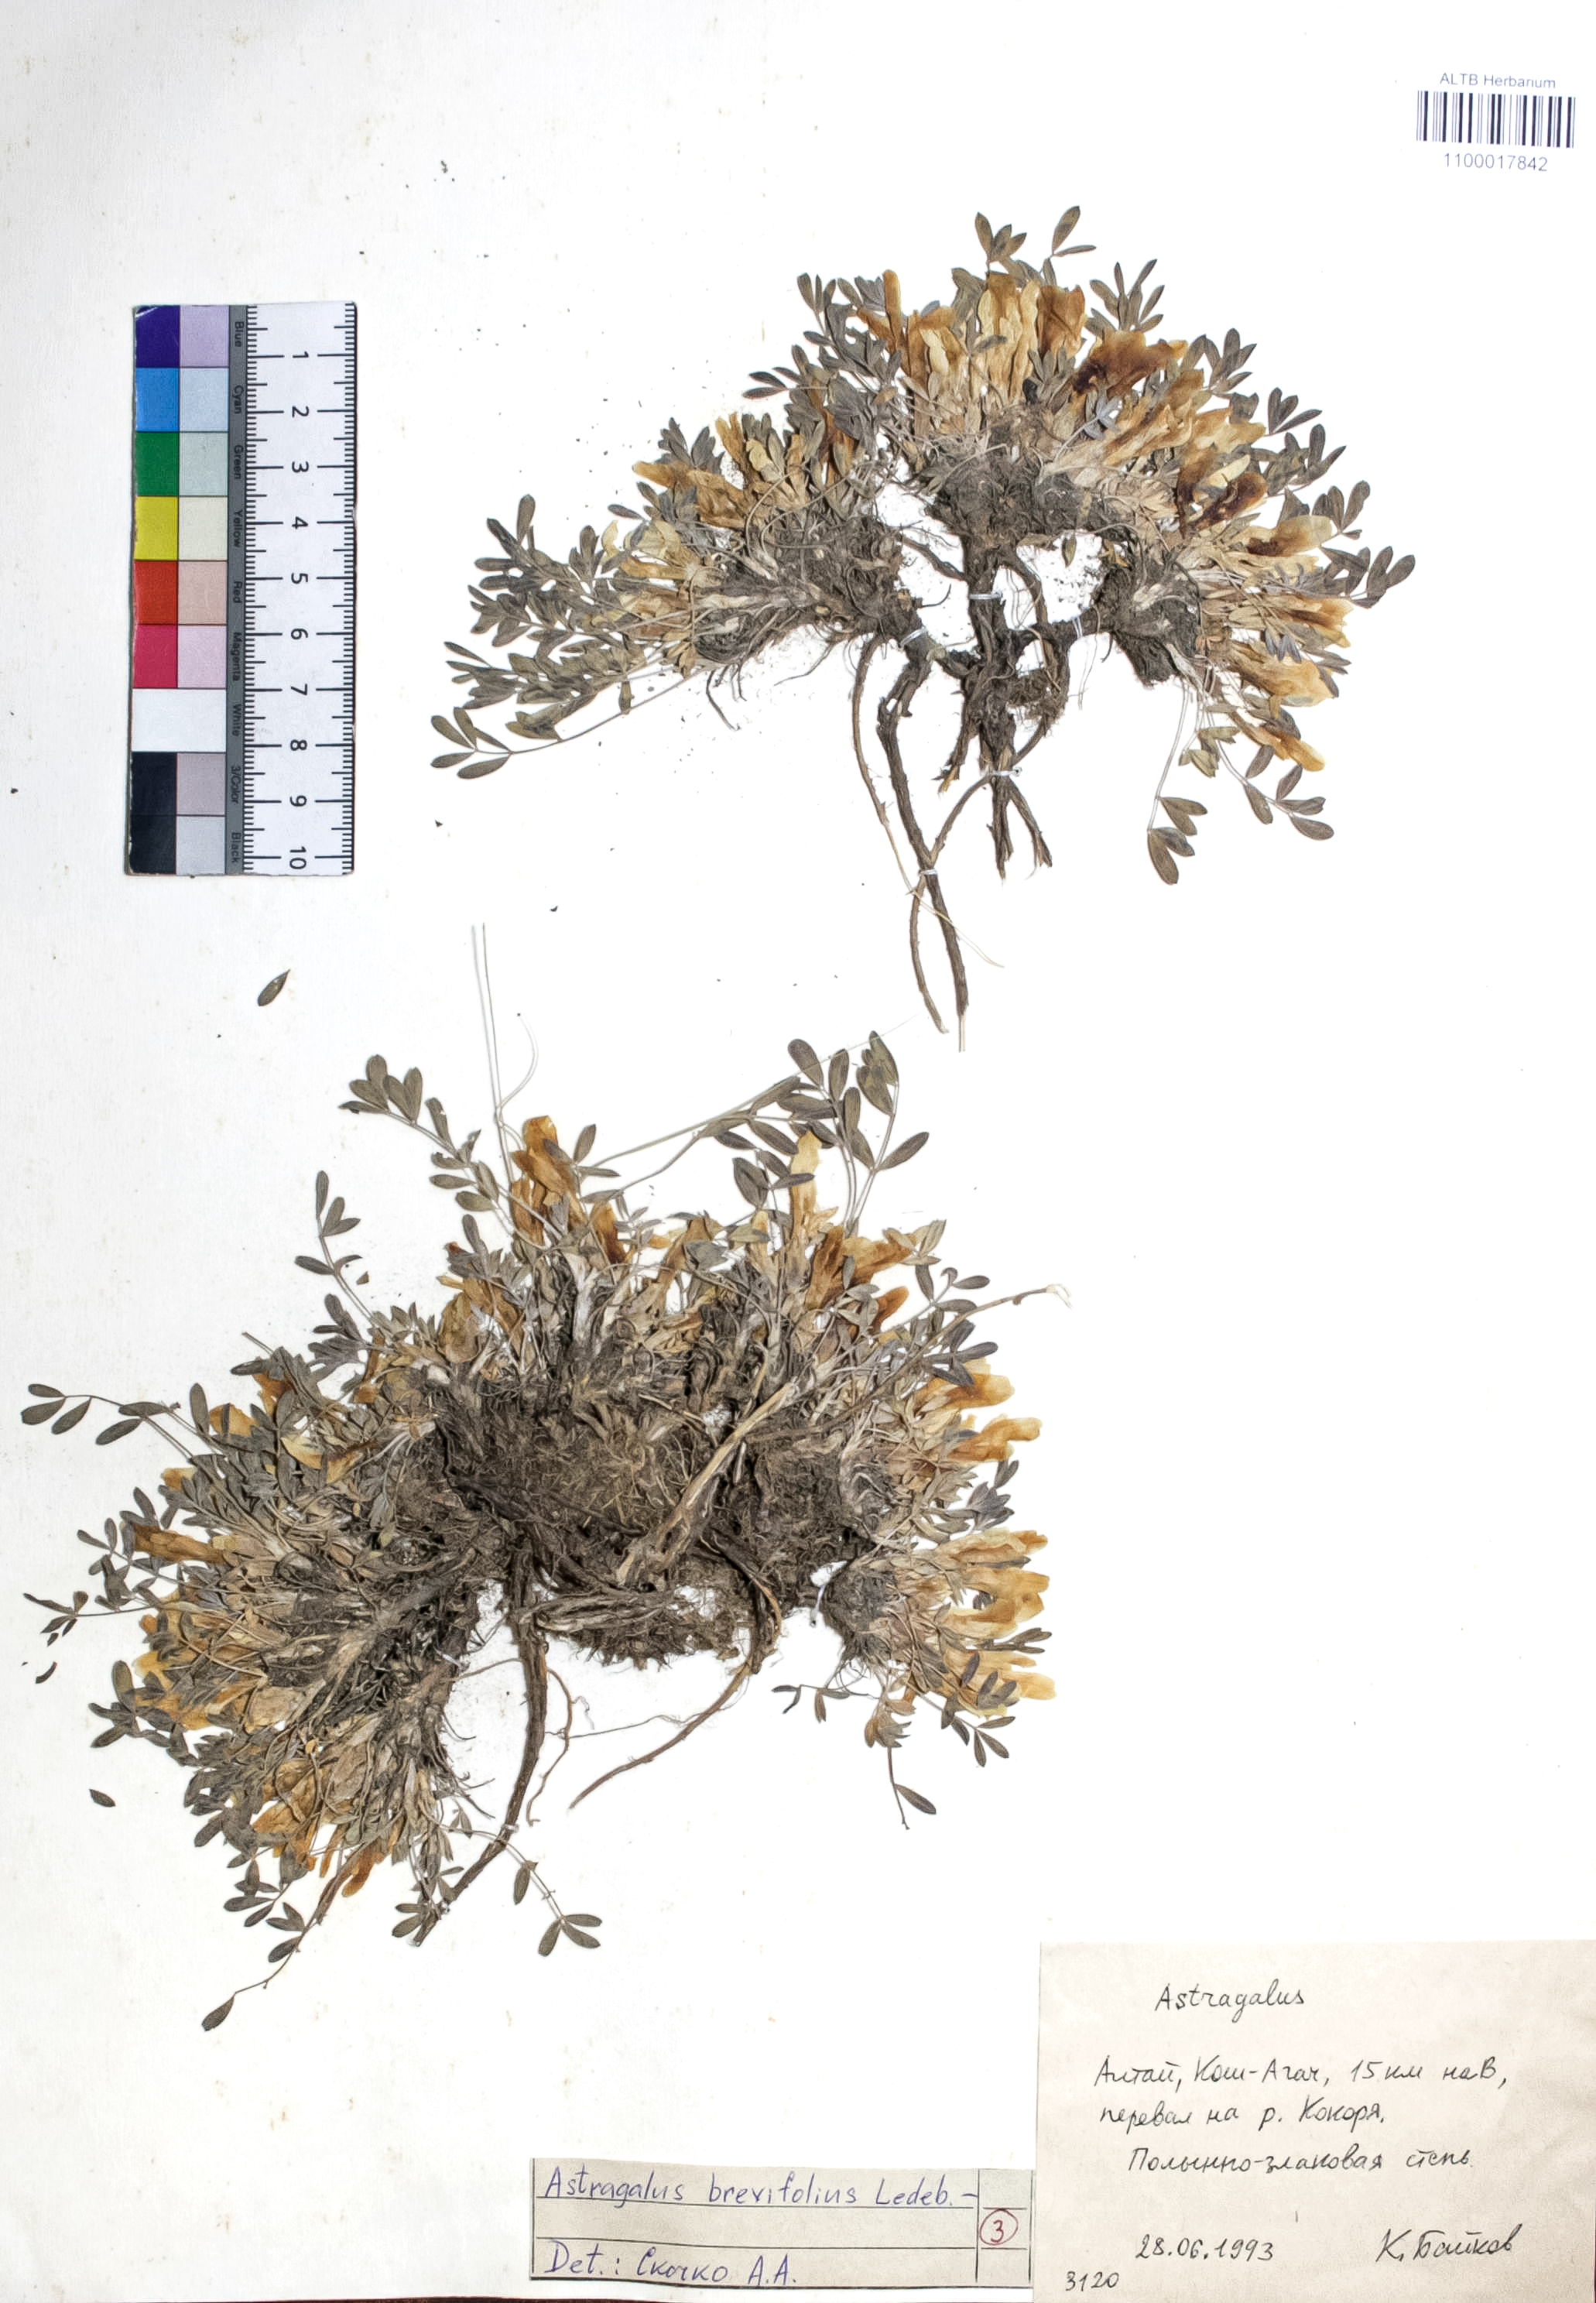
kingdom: Plantae
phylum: Tracheophyta
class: Magnoliopsida
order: Fabales
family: Fabaceae
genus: Astragalus
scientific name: Astragalus brevifolius
